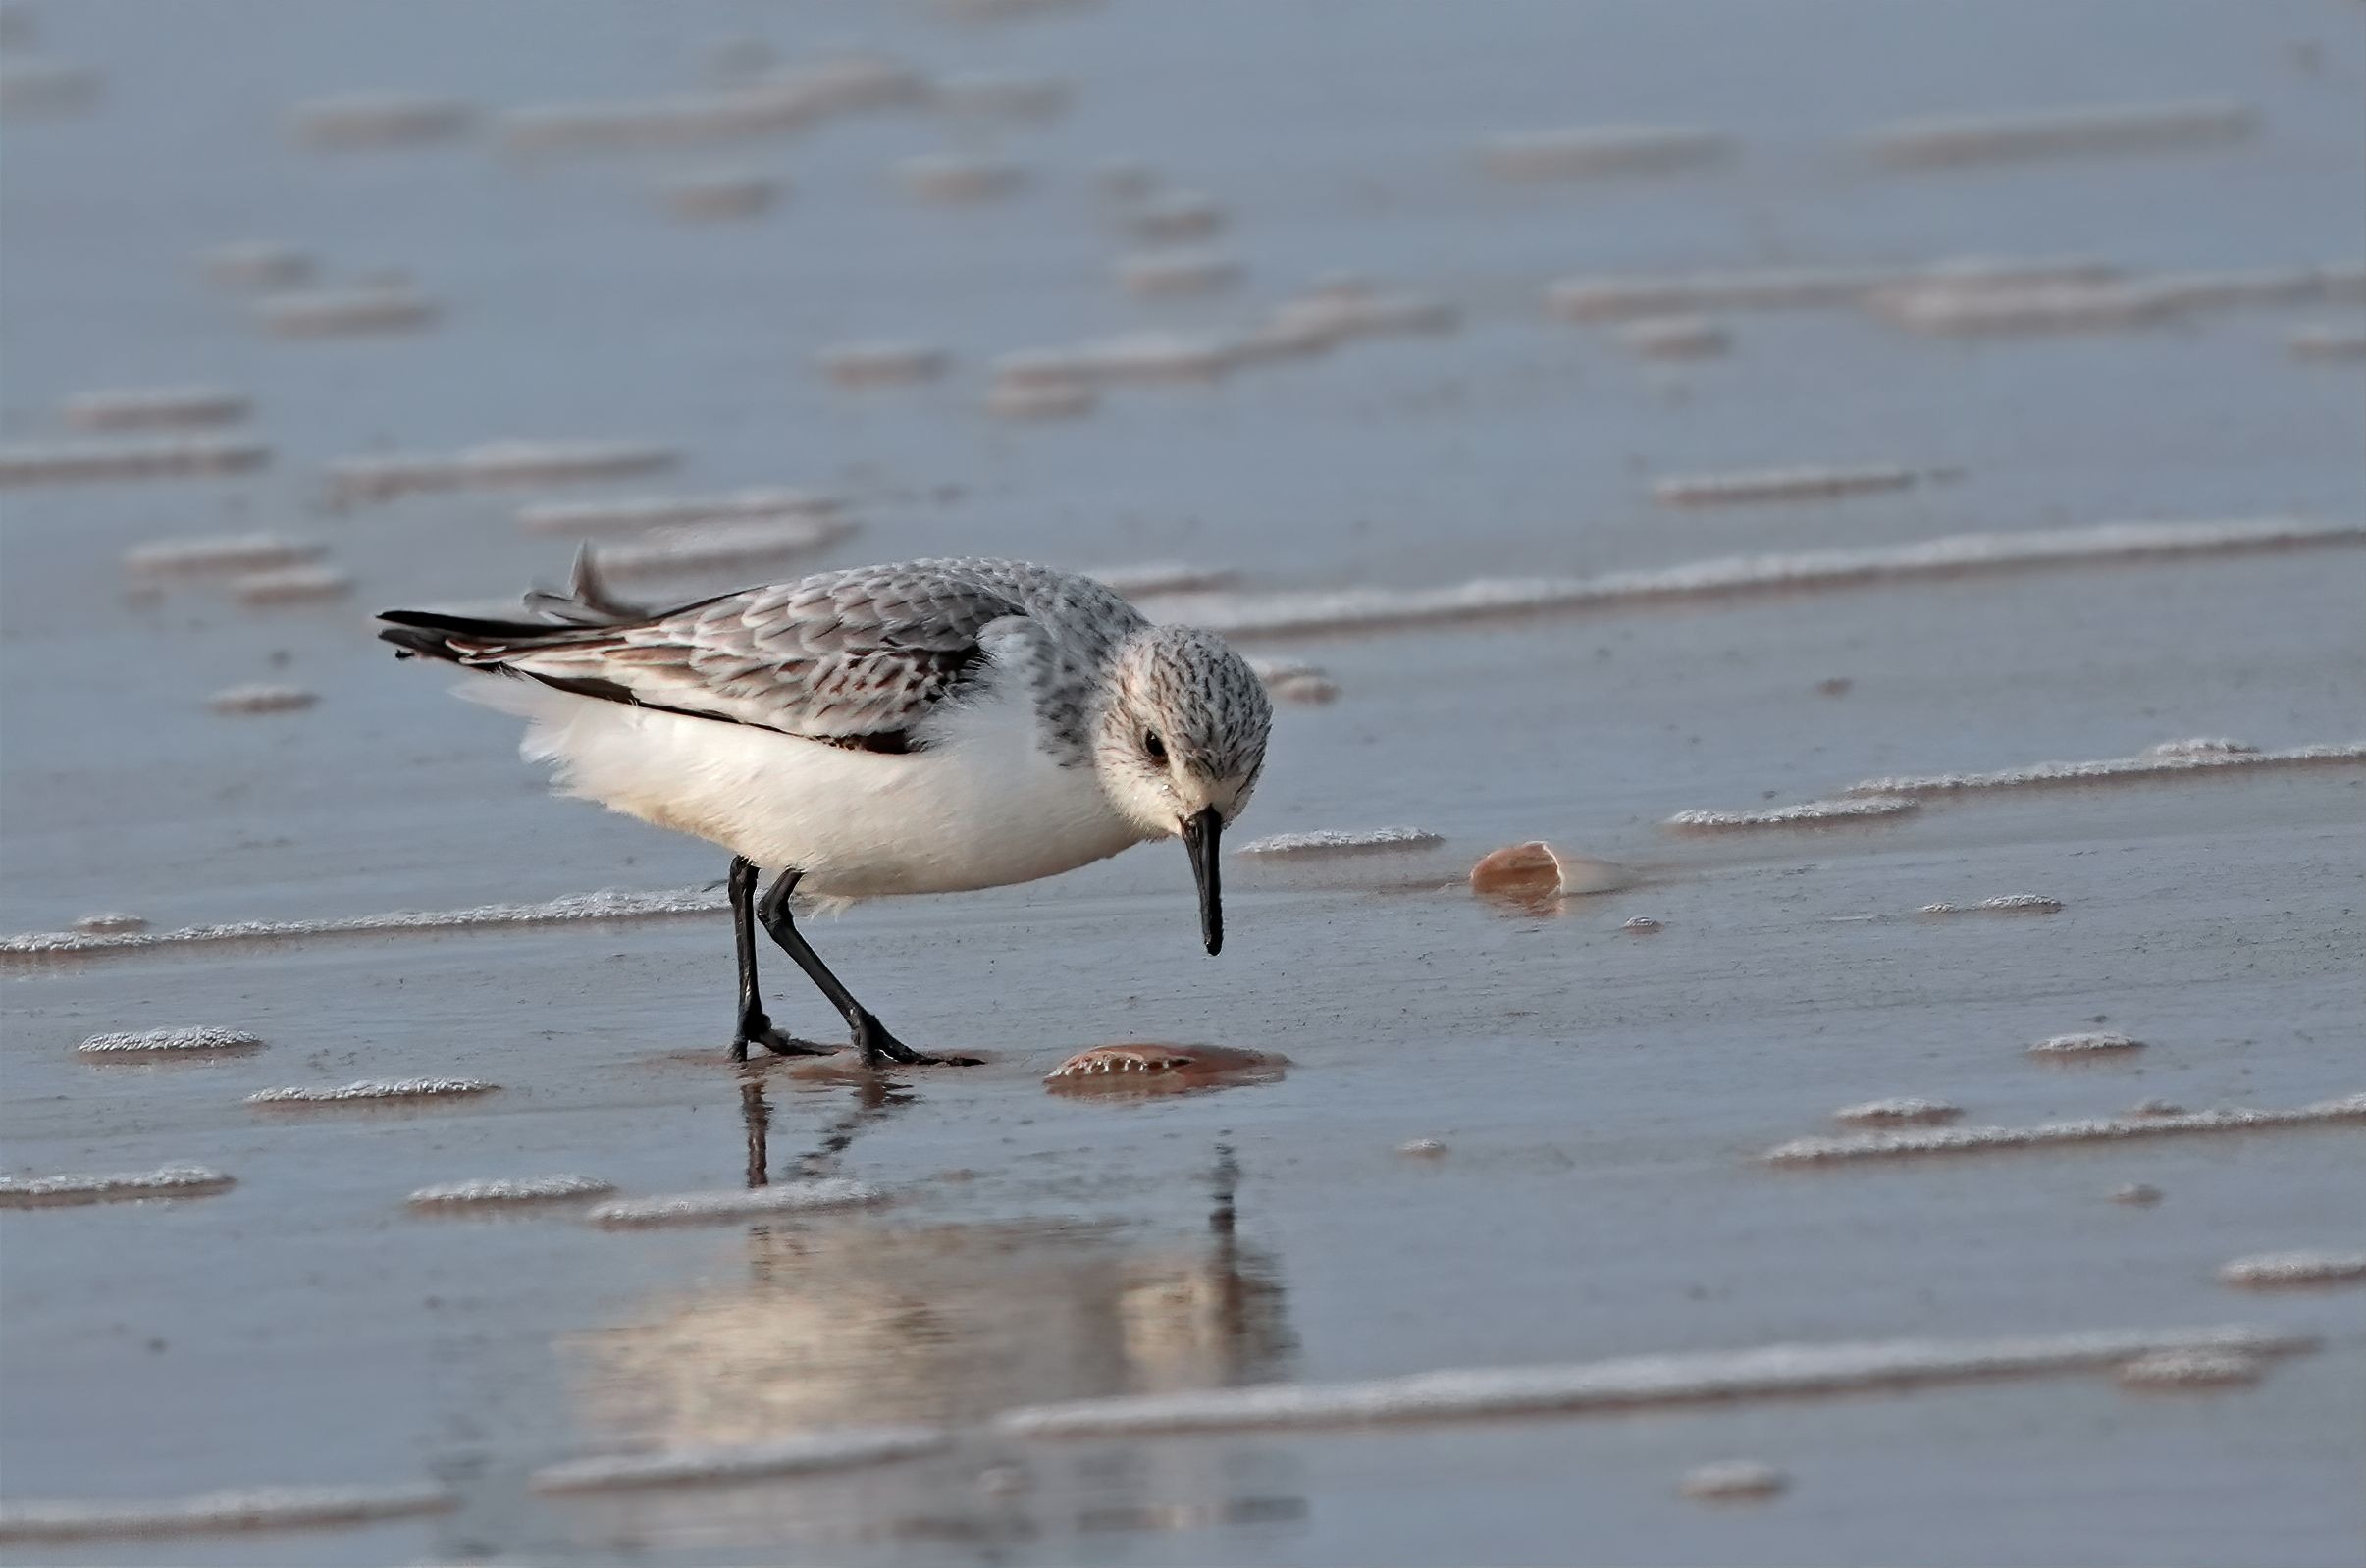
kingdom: Animalia
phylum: Chordata
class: Aves
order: Charadriiformes
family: Scolopacidae
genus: Calidris
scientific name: Calidris alba
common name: Sandløber
